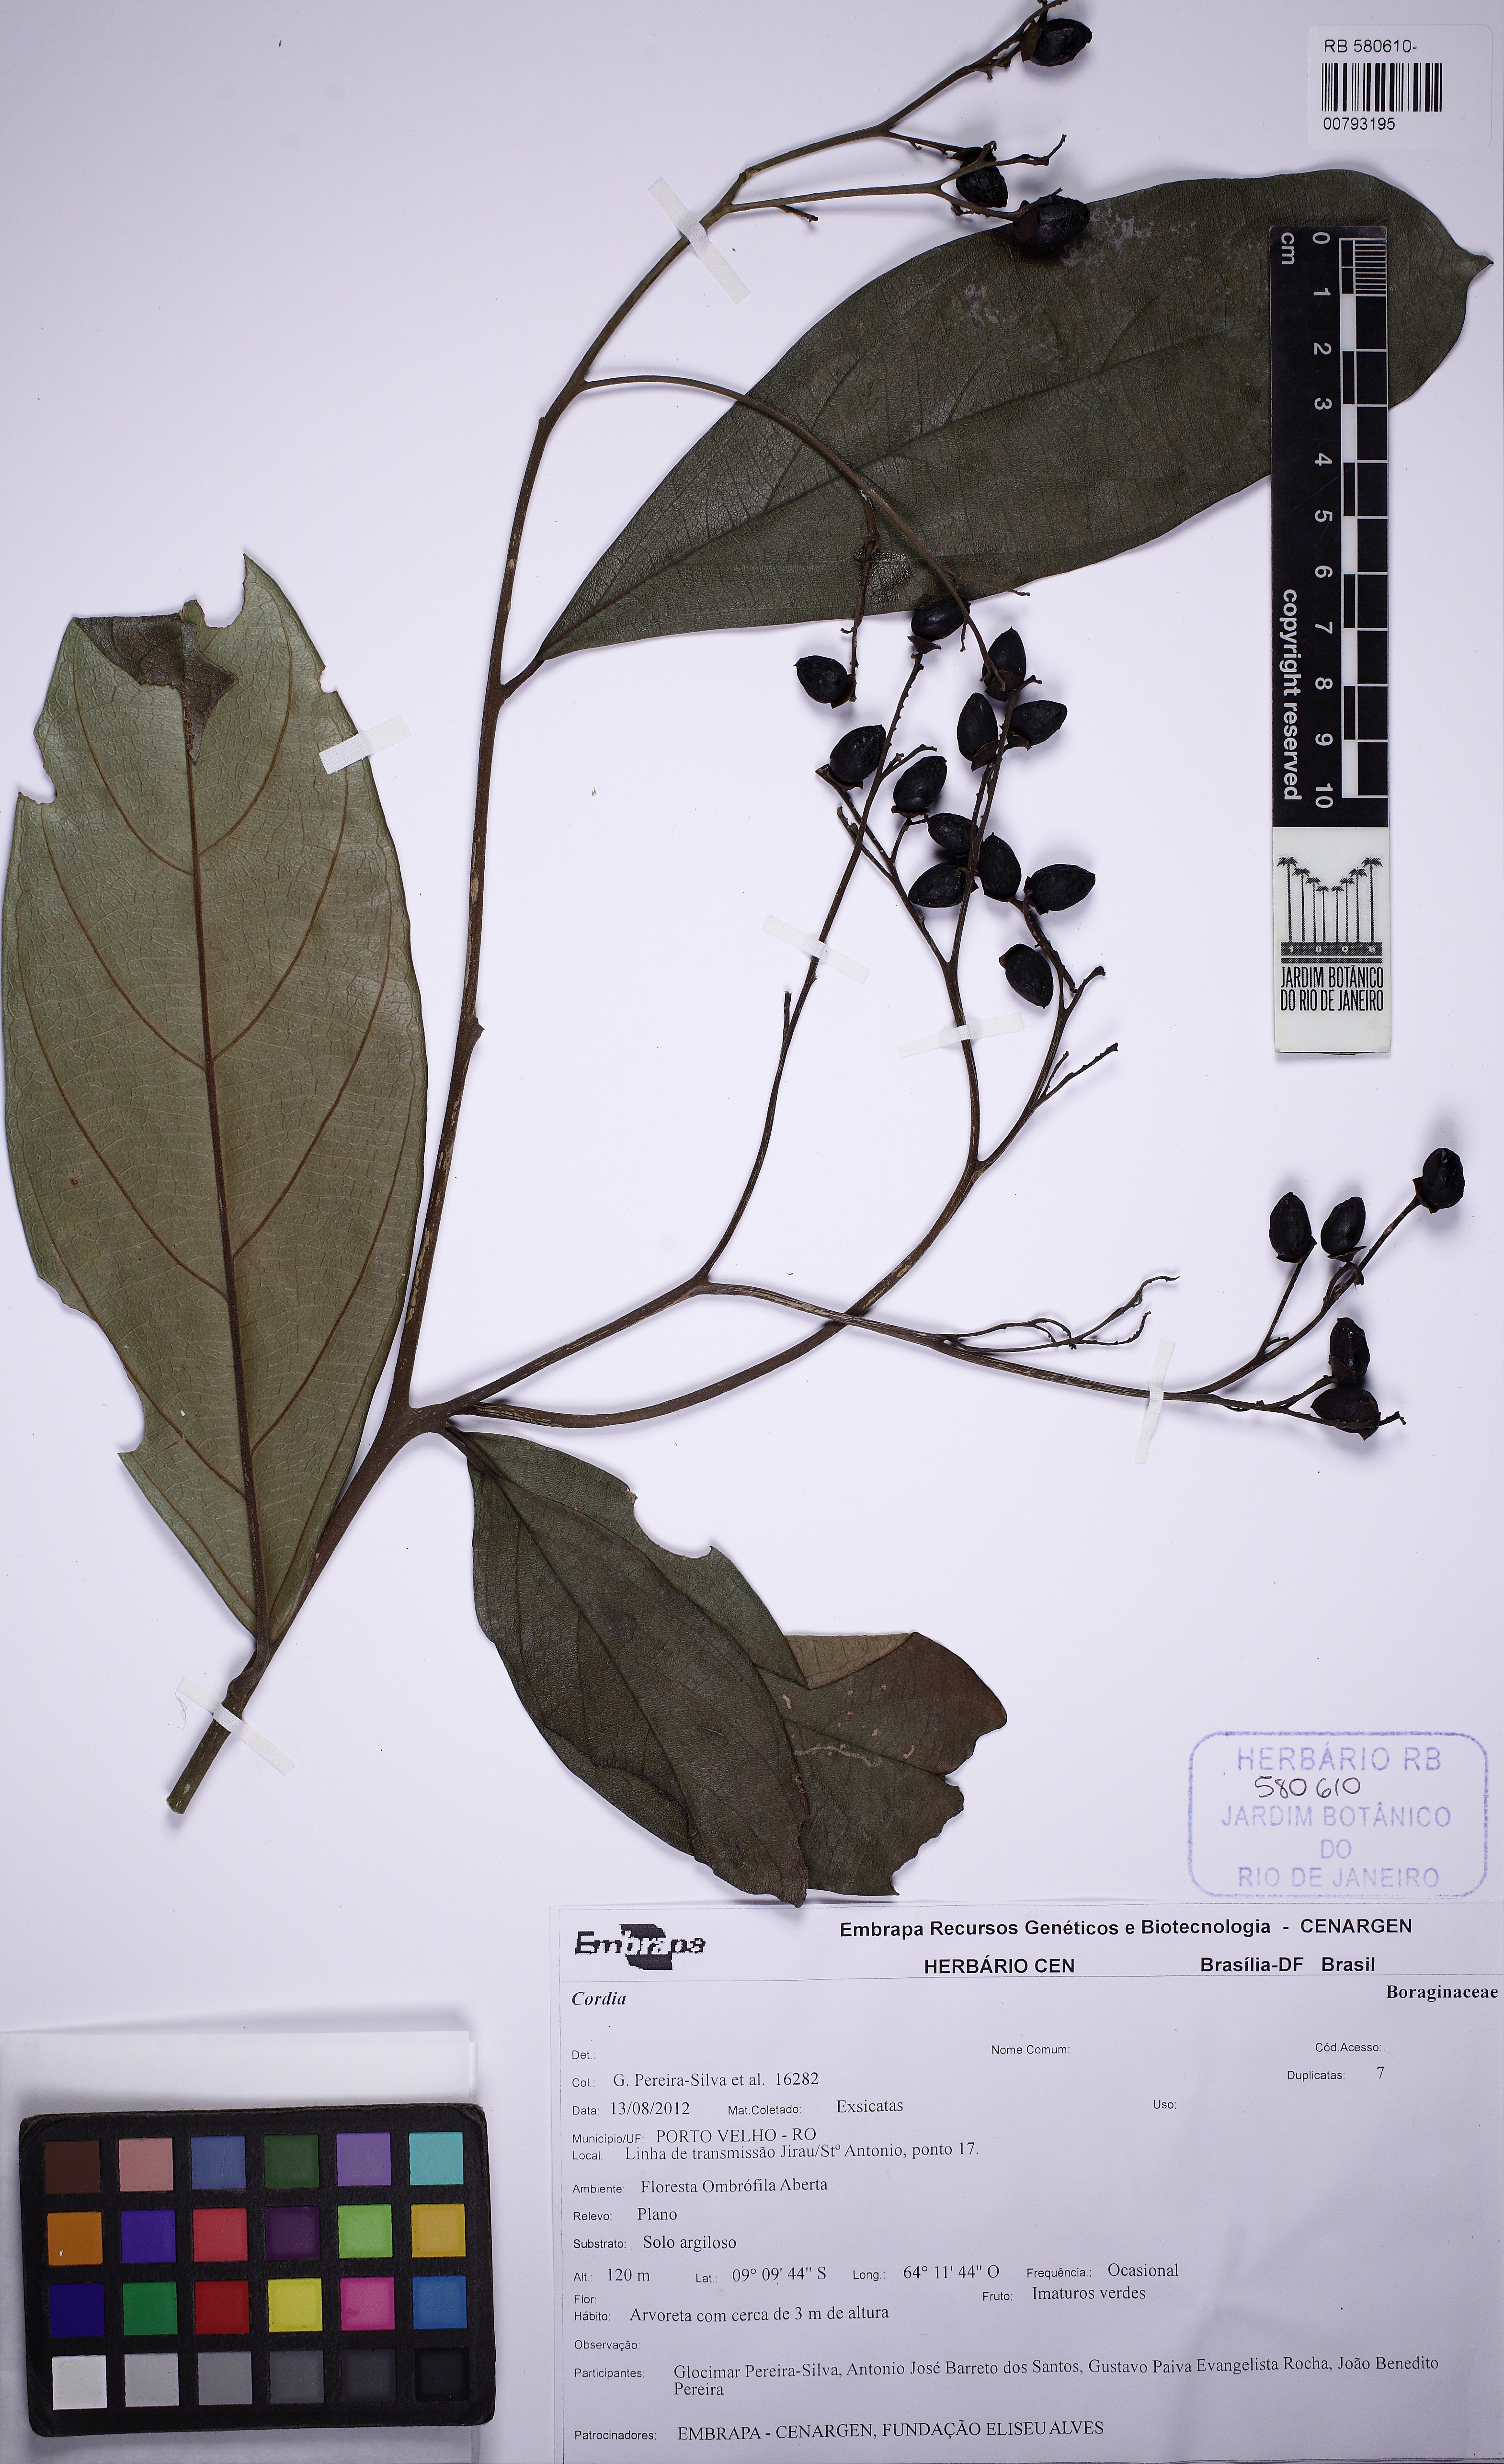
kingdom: Plantae
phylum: Tracheophyta
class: Magnoliopsida
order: Boraginales
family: Cordiaceae
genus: Cordia
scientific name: Cordia
